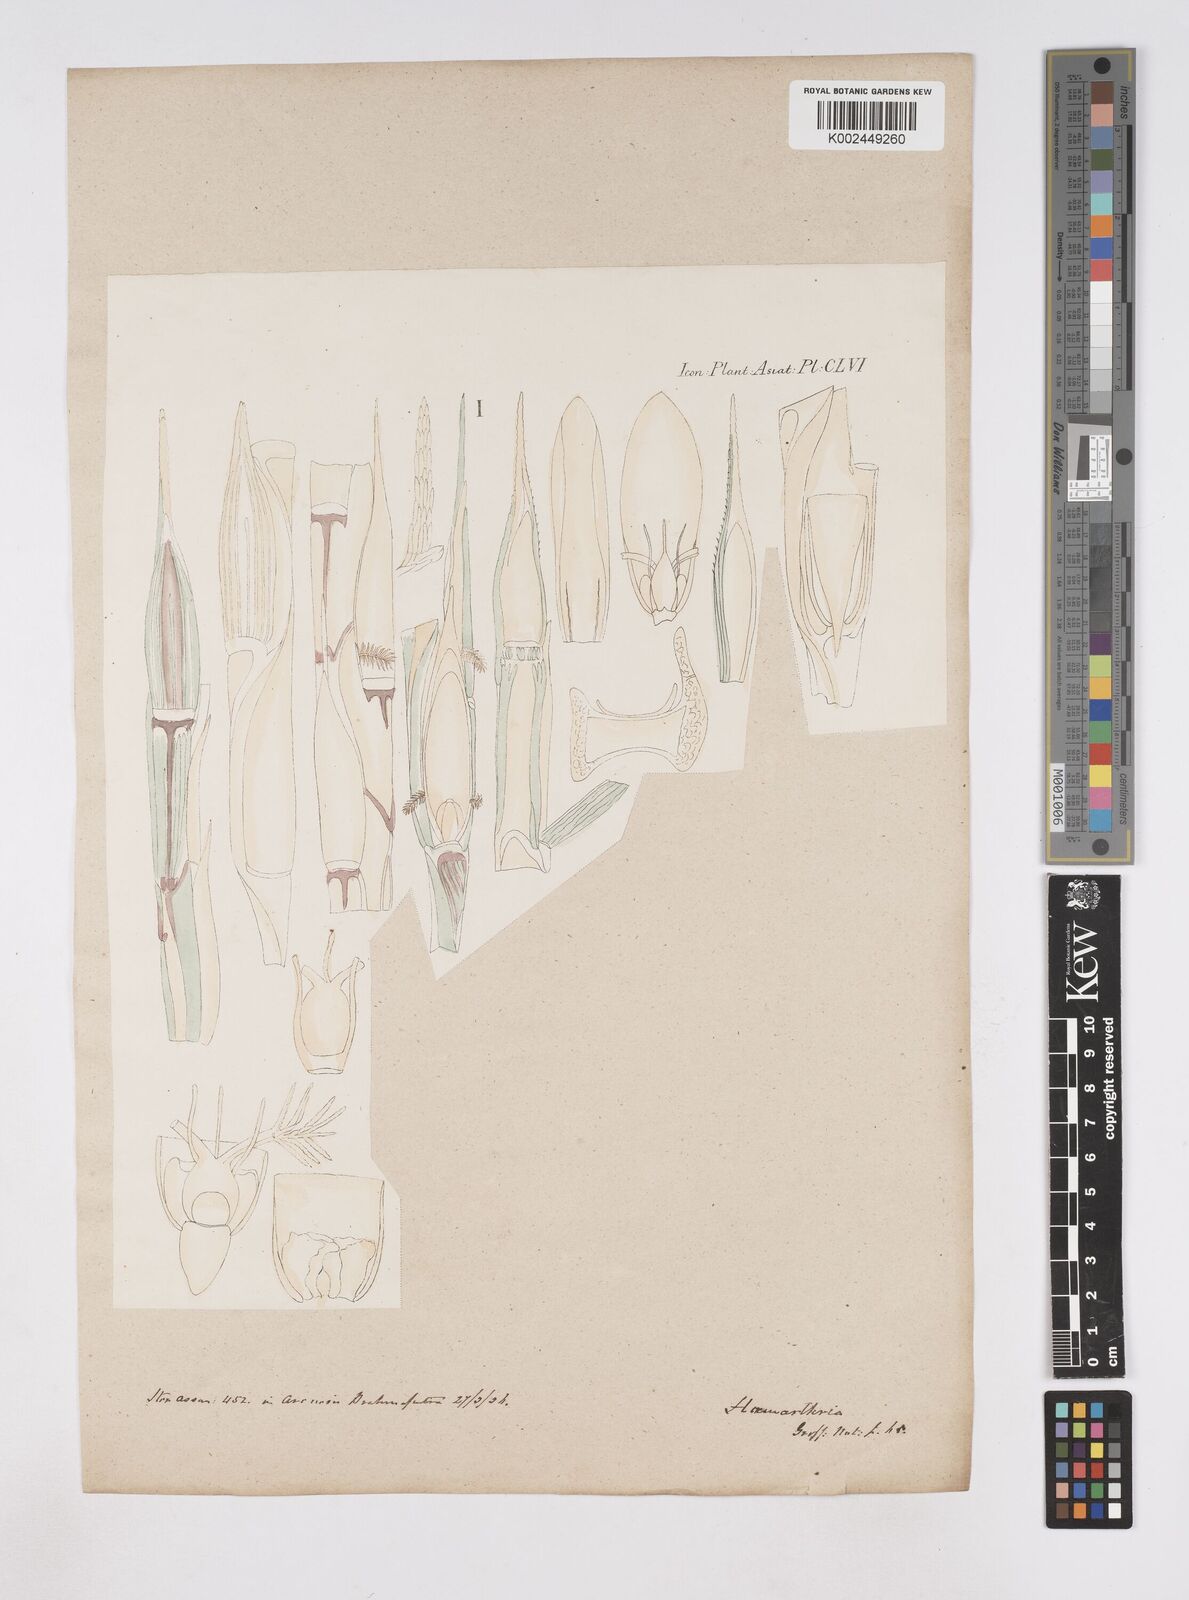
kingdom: Plantae
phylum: Tracheophyta
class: Liliopsida
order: Poales
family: Poaceae
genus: Hemarthria
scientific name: Hemarthria compressa
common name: Whip grass
